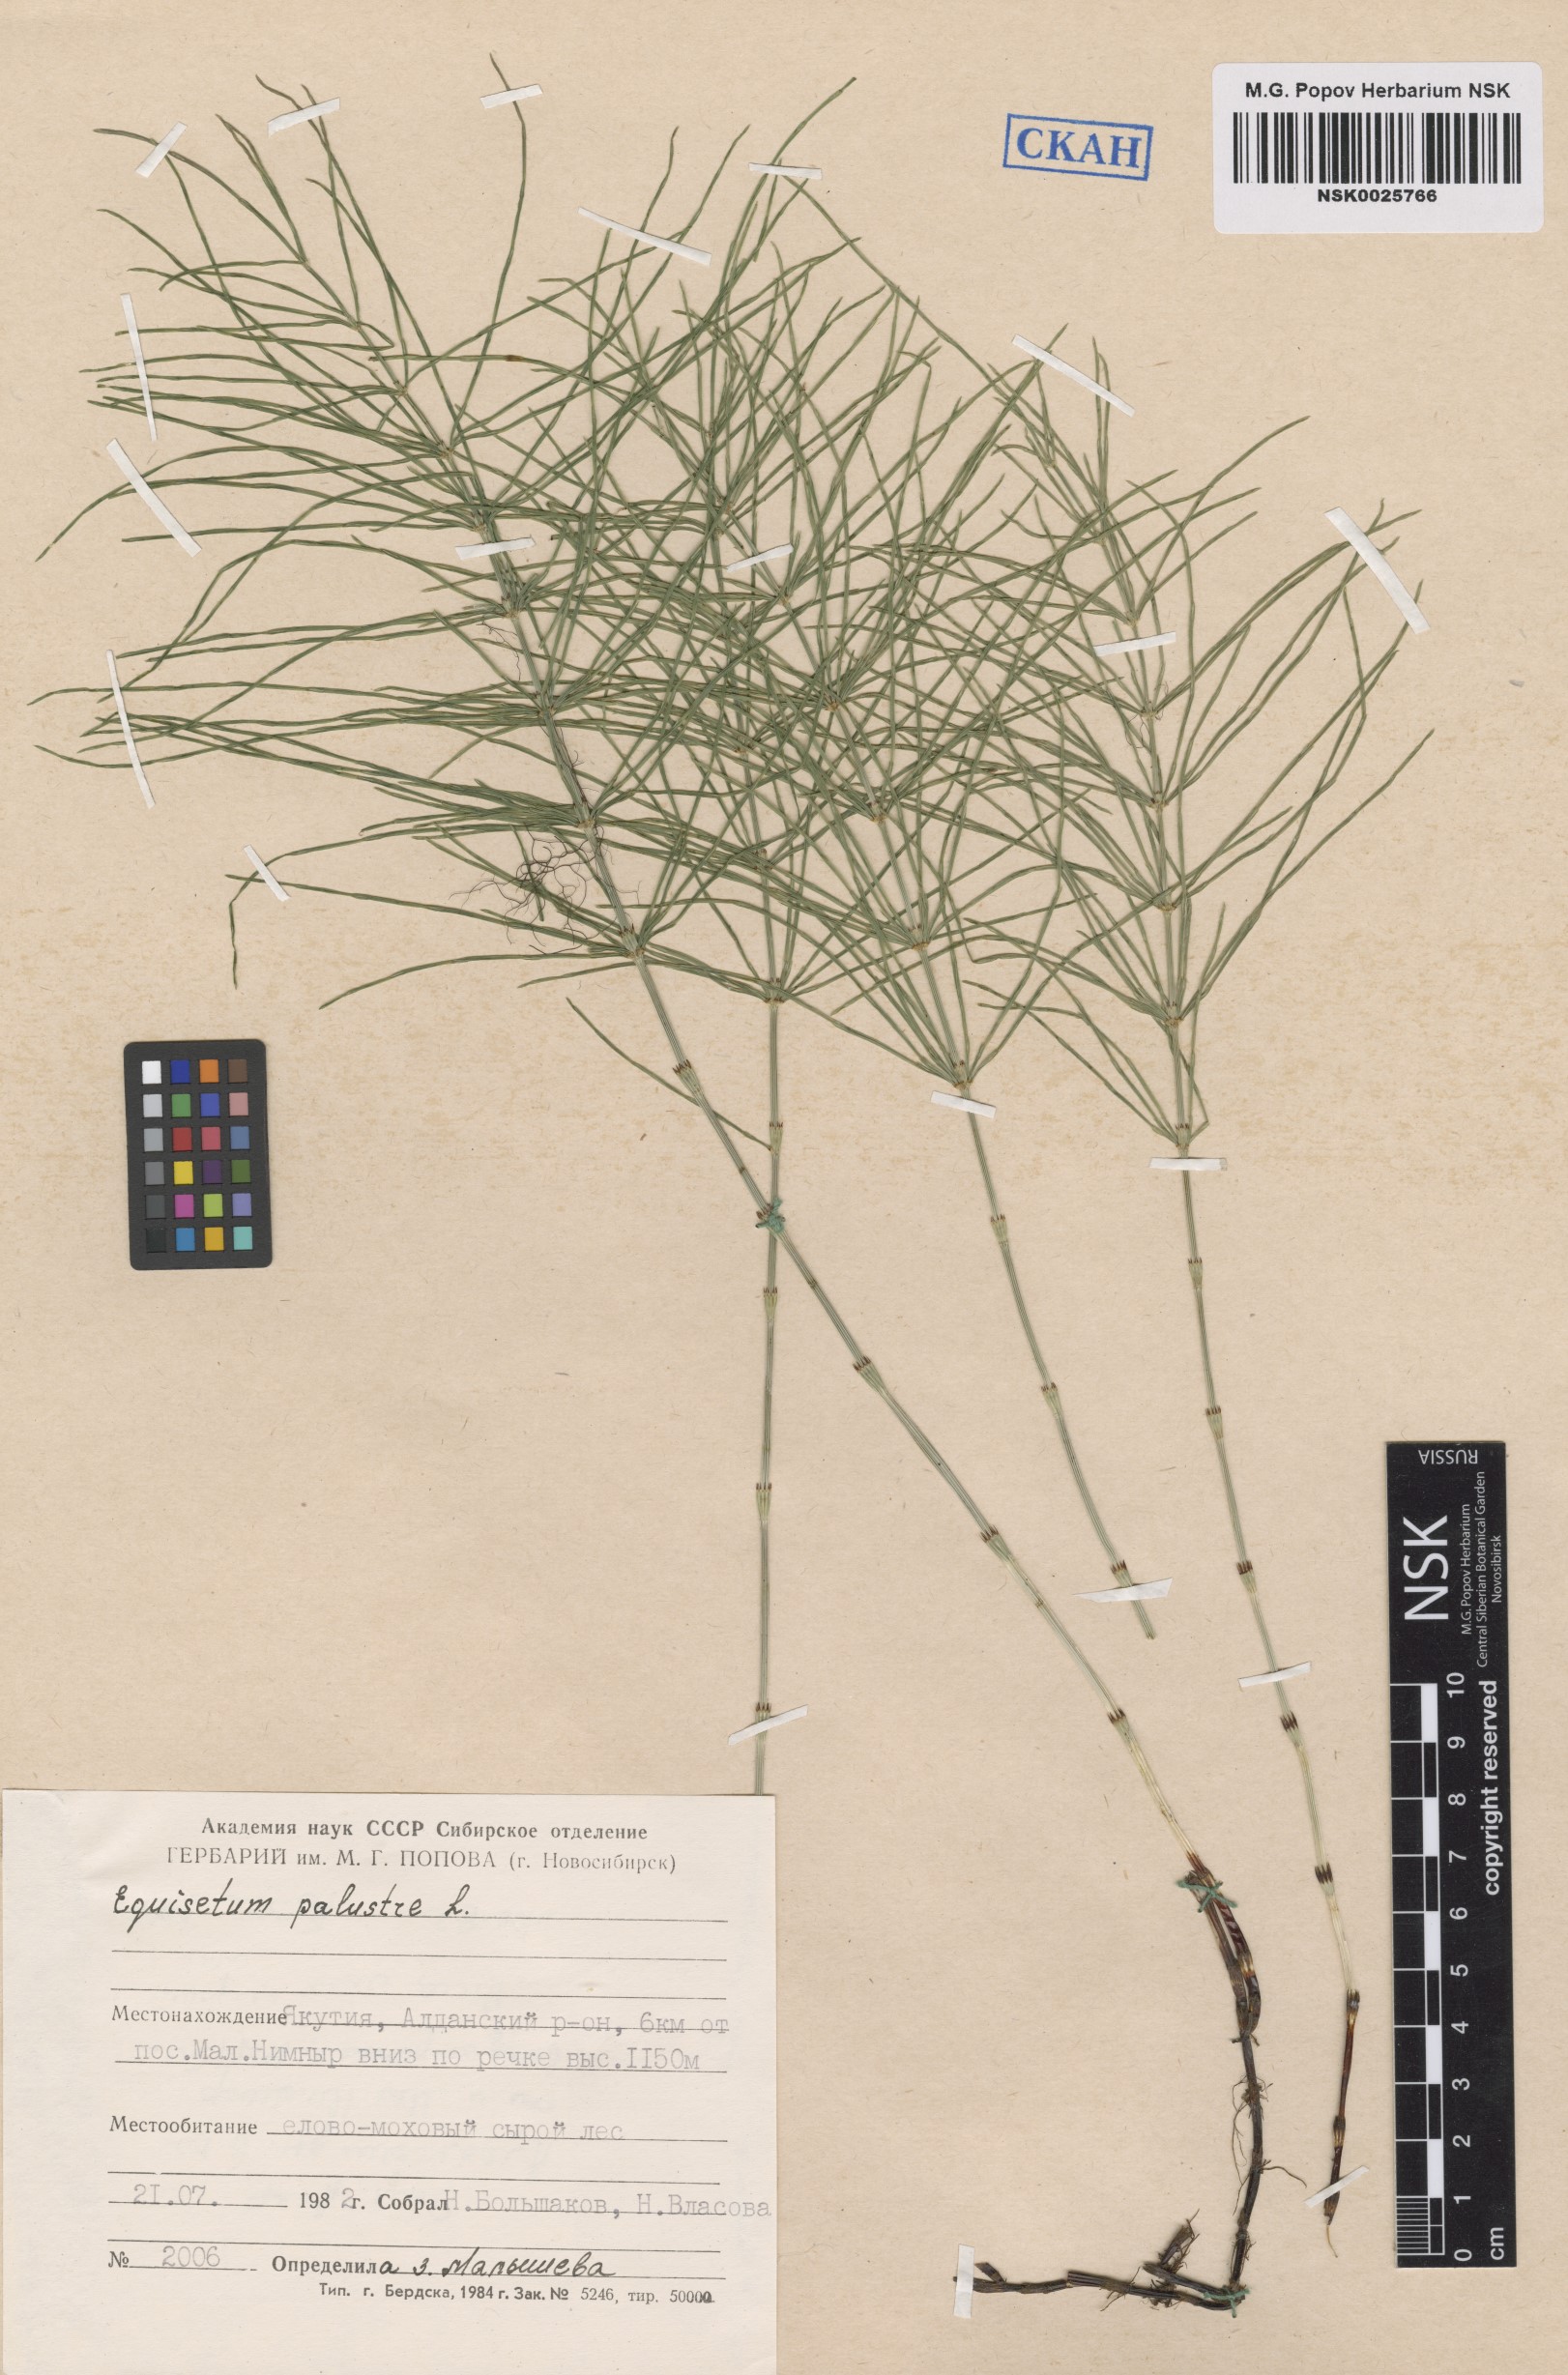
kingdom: Plantae
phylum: Tracheophyta
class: Polypodiopsida
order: Equisetales
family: Equisetaceae
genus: Equisetum
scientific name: Equisetum palustre
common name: Marsh horsetail
